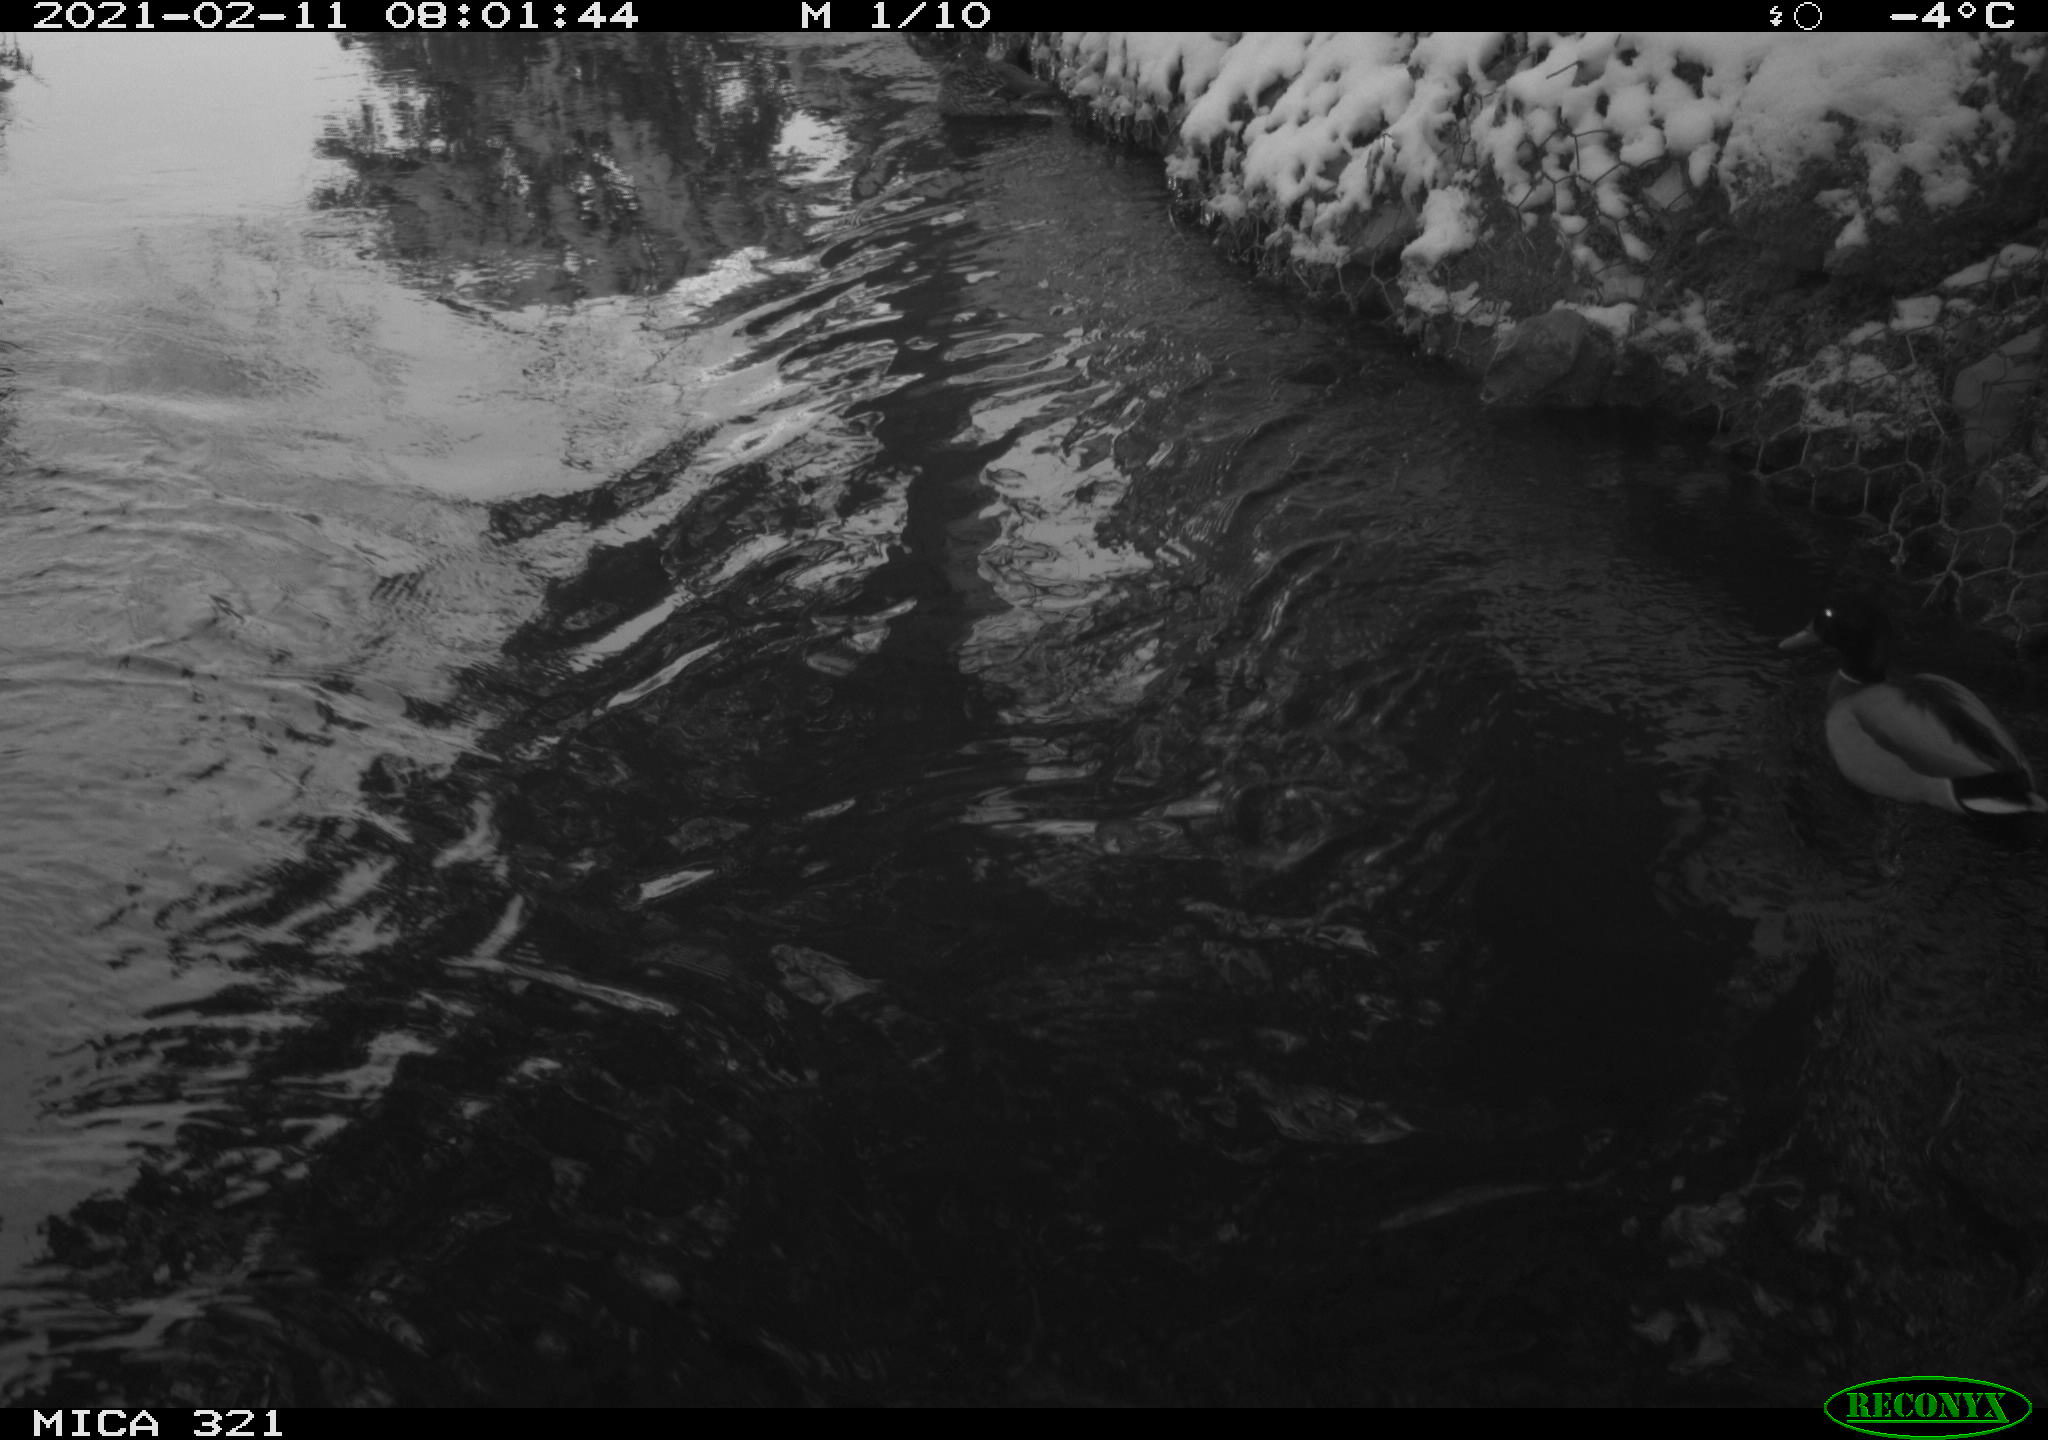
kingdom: Animalia
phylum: Chordata
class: Aves
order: Anseriformes
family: Anatidae
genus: Anas
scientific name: Anas platyrhynchos
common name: Mallard
